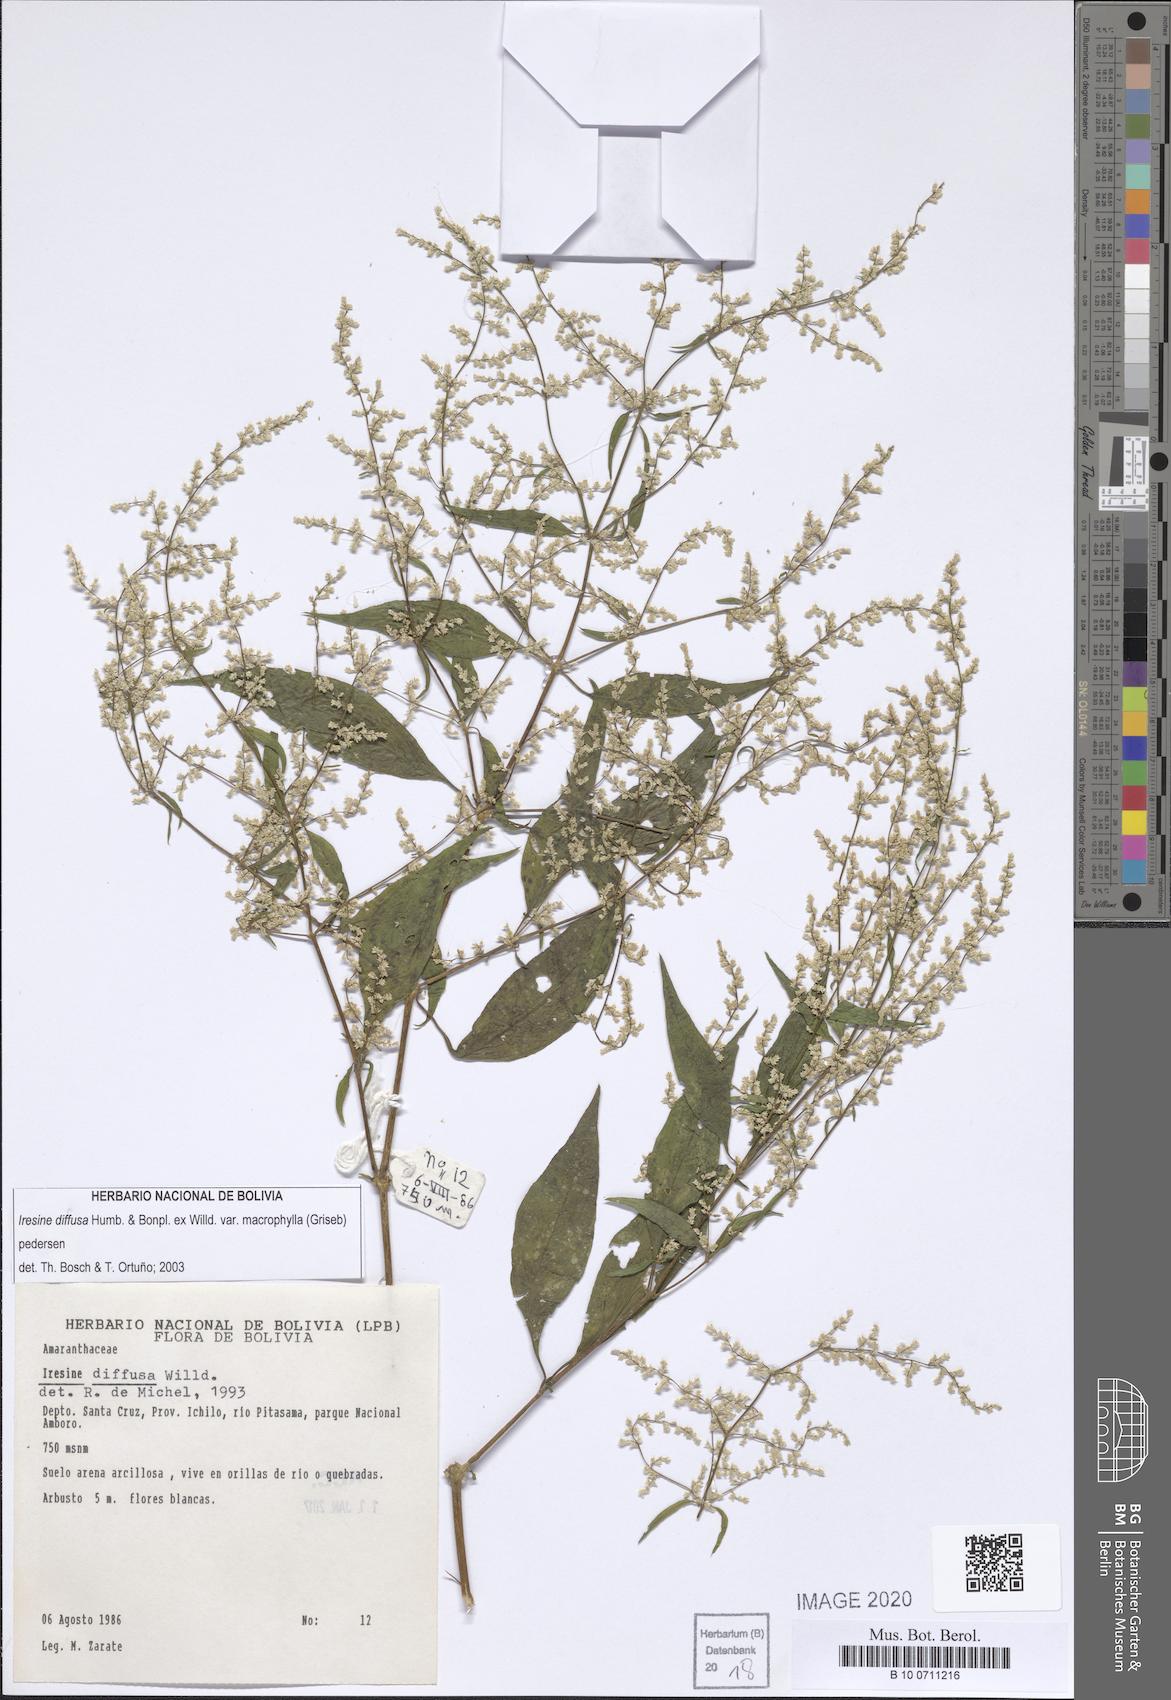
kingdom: Plantae
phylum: Tracheophyta
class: Magnoliopsida
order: Caryophyllales
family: Amaranthaceae
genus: Iresine
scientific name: Iresine diffusa
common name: Juba's-bush
